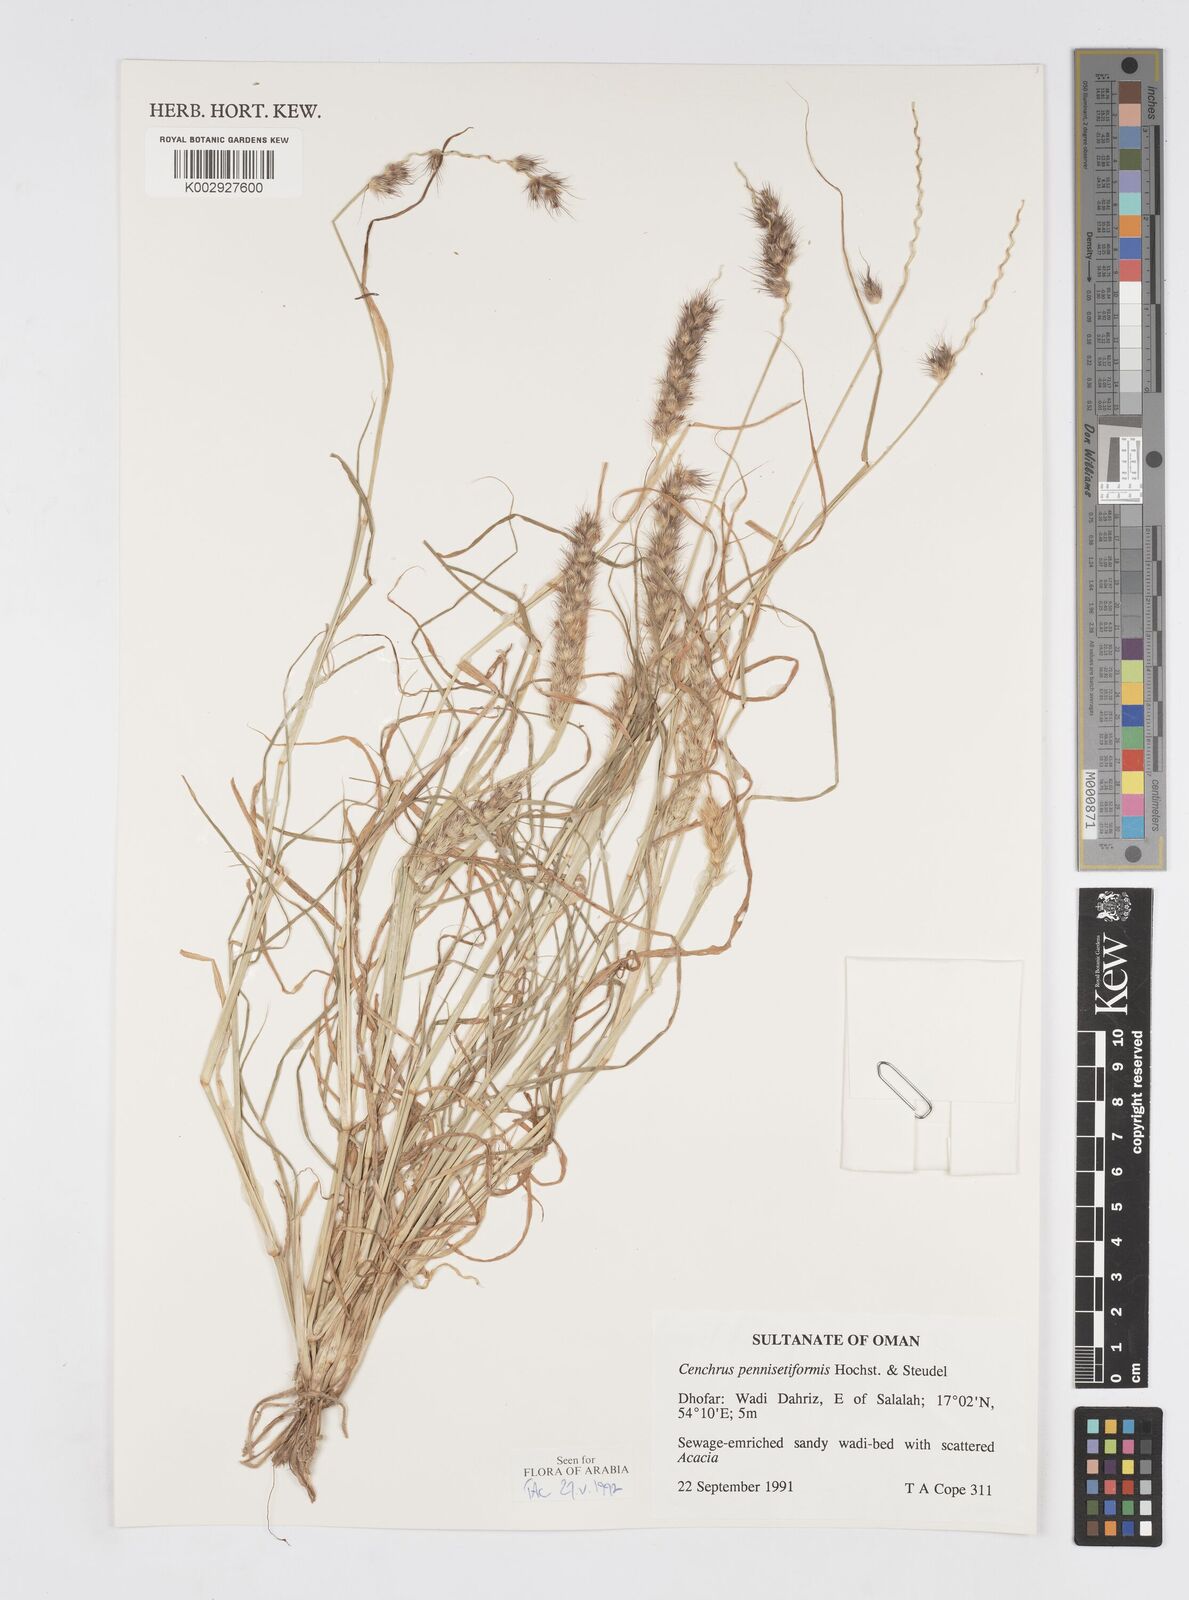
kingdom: Plantae
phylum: Tracheophyta
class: Liliopsida
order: Poales
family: Poaceae
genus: Cenchrus
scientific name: Cenchrus pennisetiformis
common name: Cloncurry
